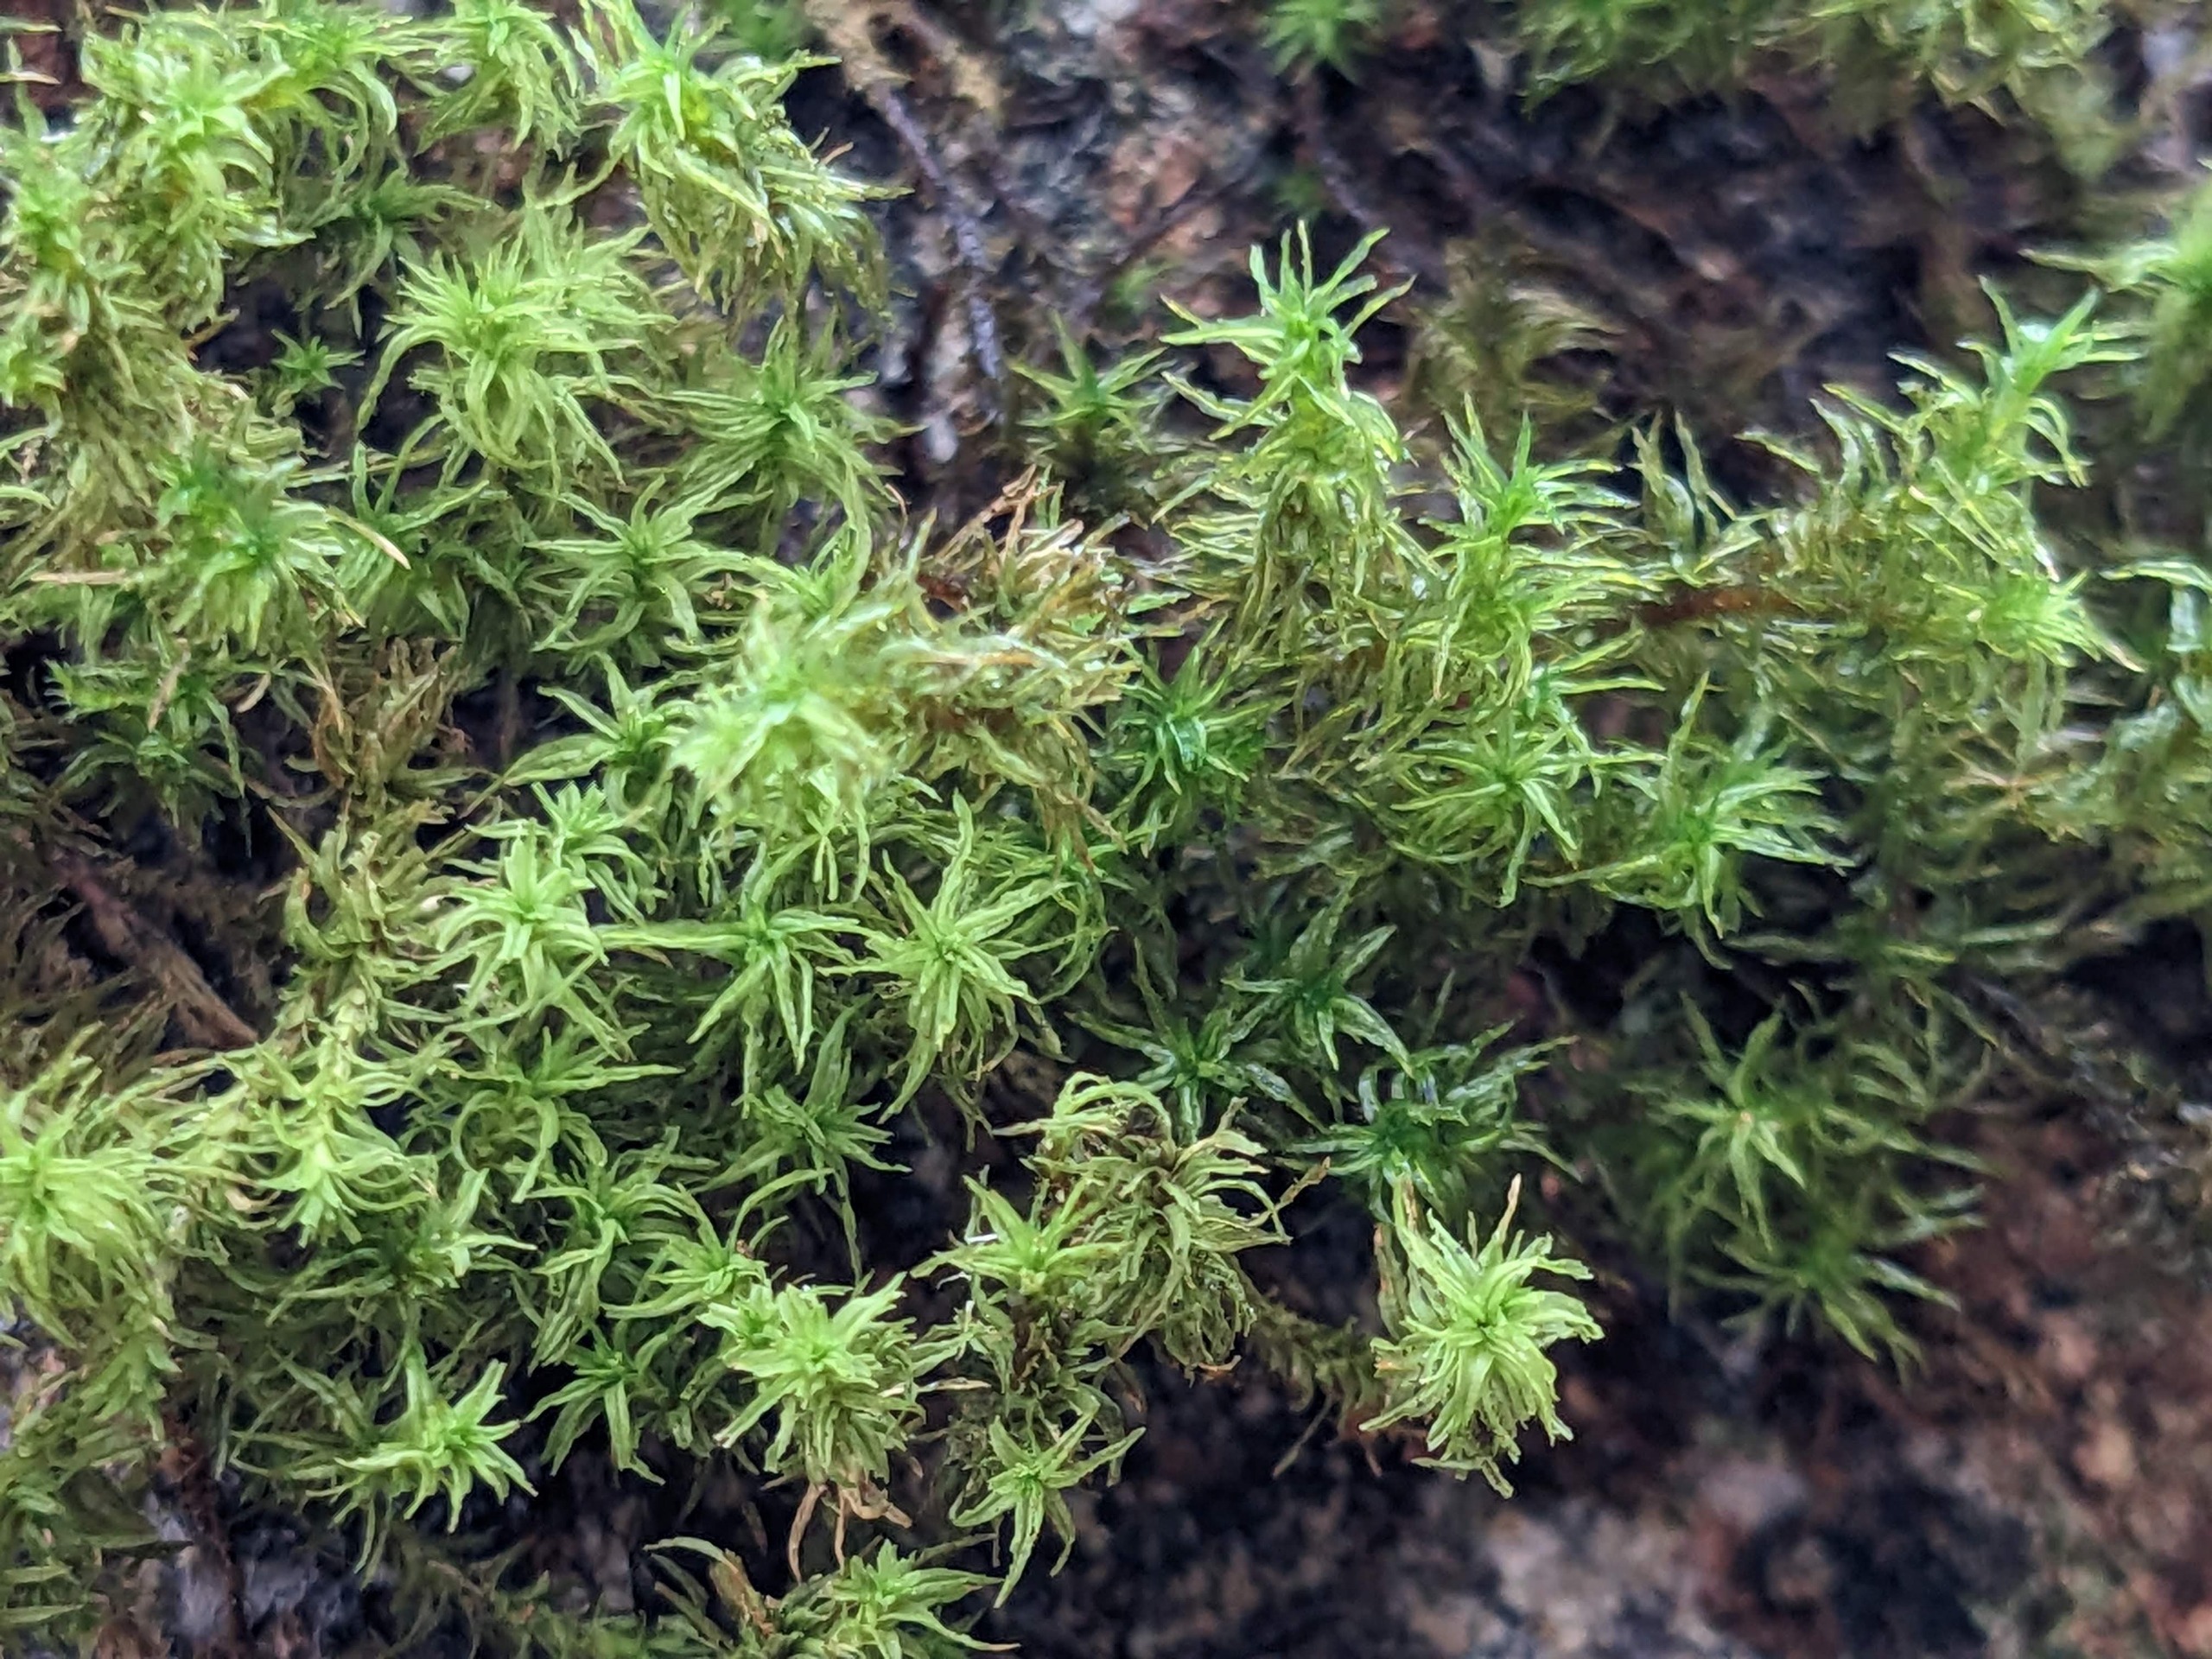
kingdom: Plantae
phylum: Bryophyta
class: Bryopsida
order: Orthotrichales
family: Orthotrichaceae
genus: Pulvigera
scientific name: Pulvigera lyellii
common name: Stor furehætte
